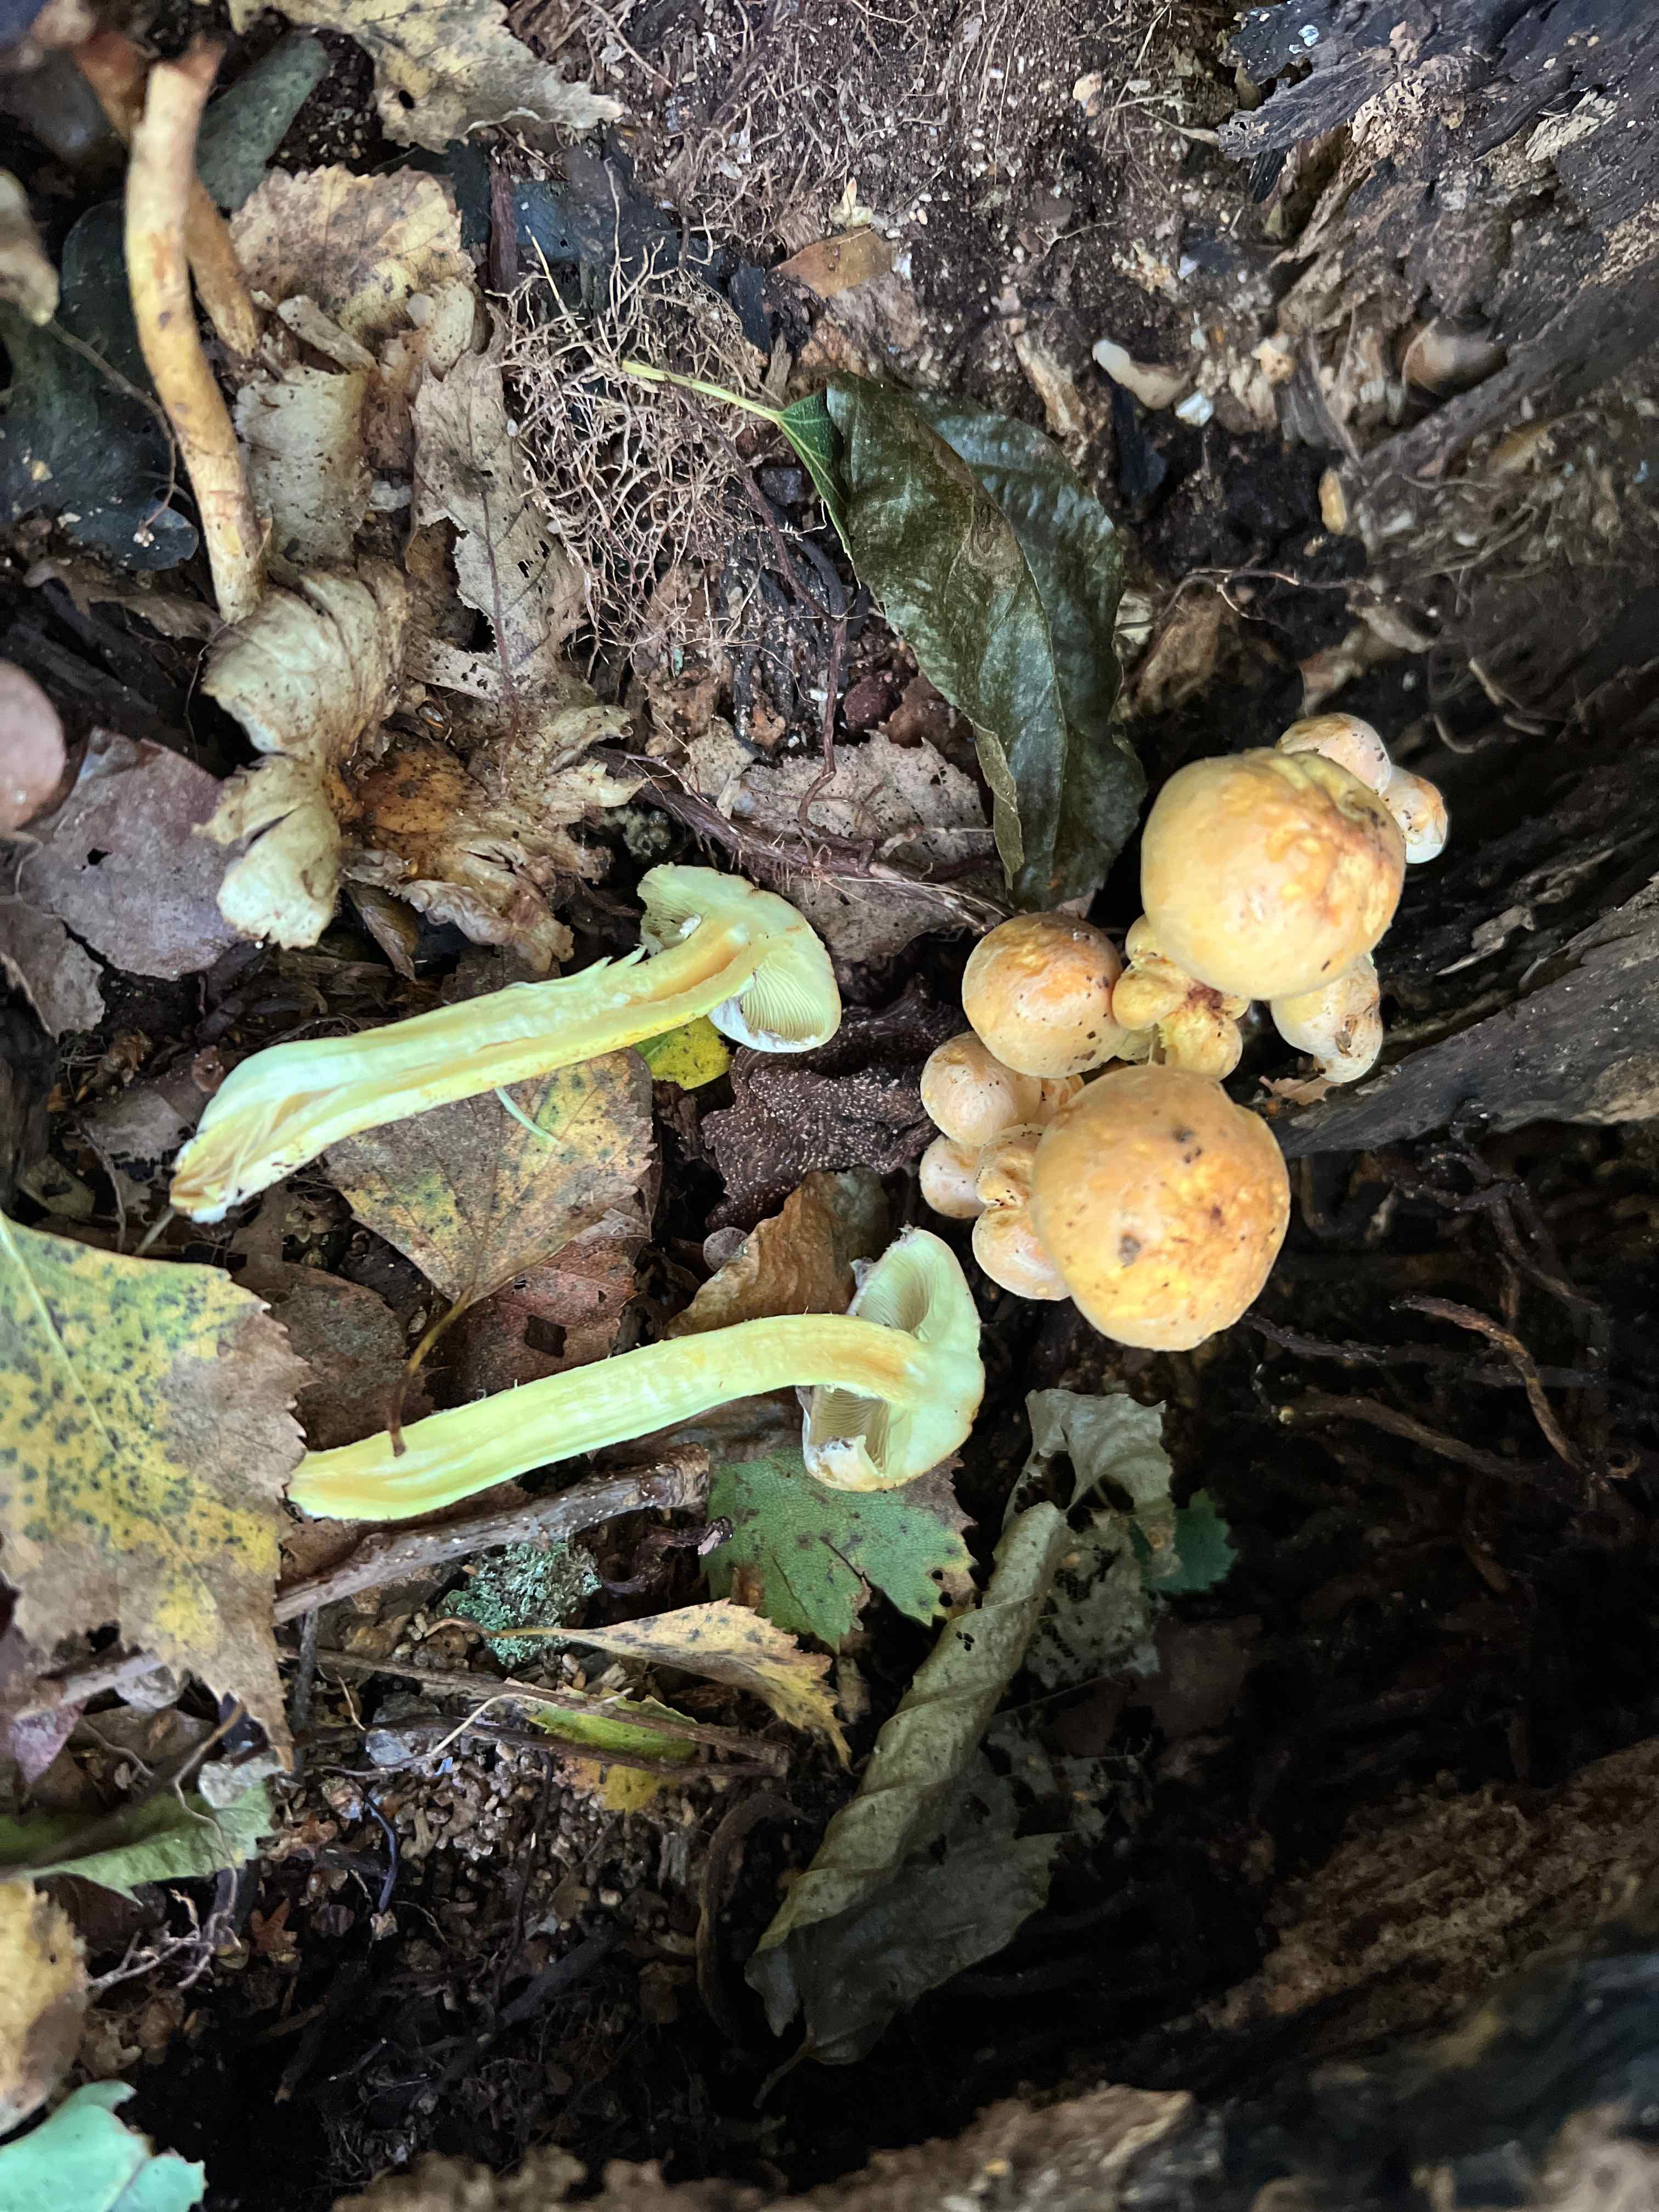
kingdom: Fungi
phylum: Basidiomycota
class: Agaricomycetes
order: Agaricales
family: Strophariaceae
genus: Hypholoma
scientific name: Hypholoma fasciculare
